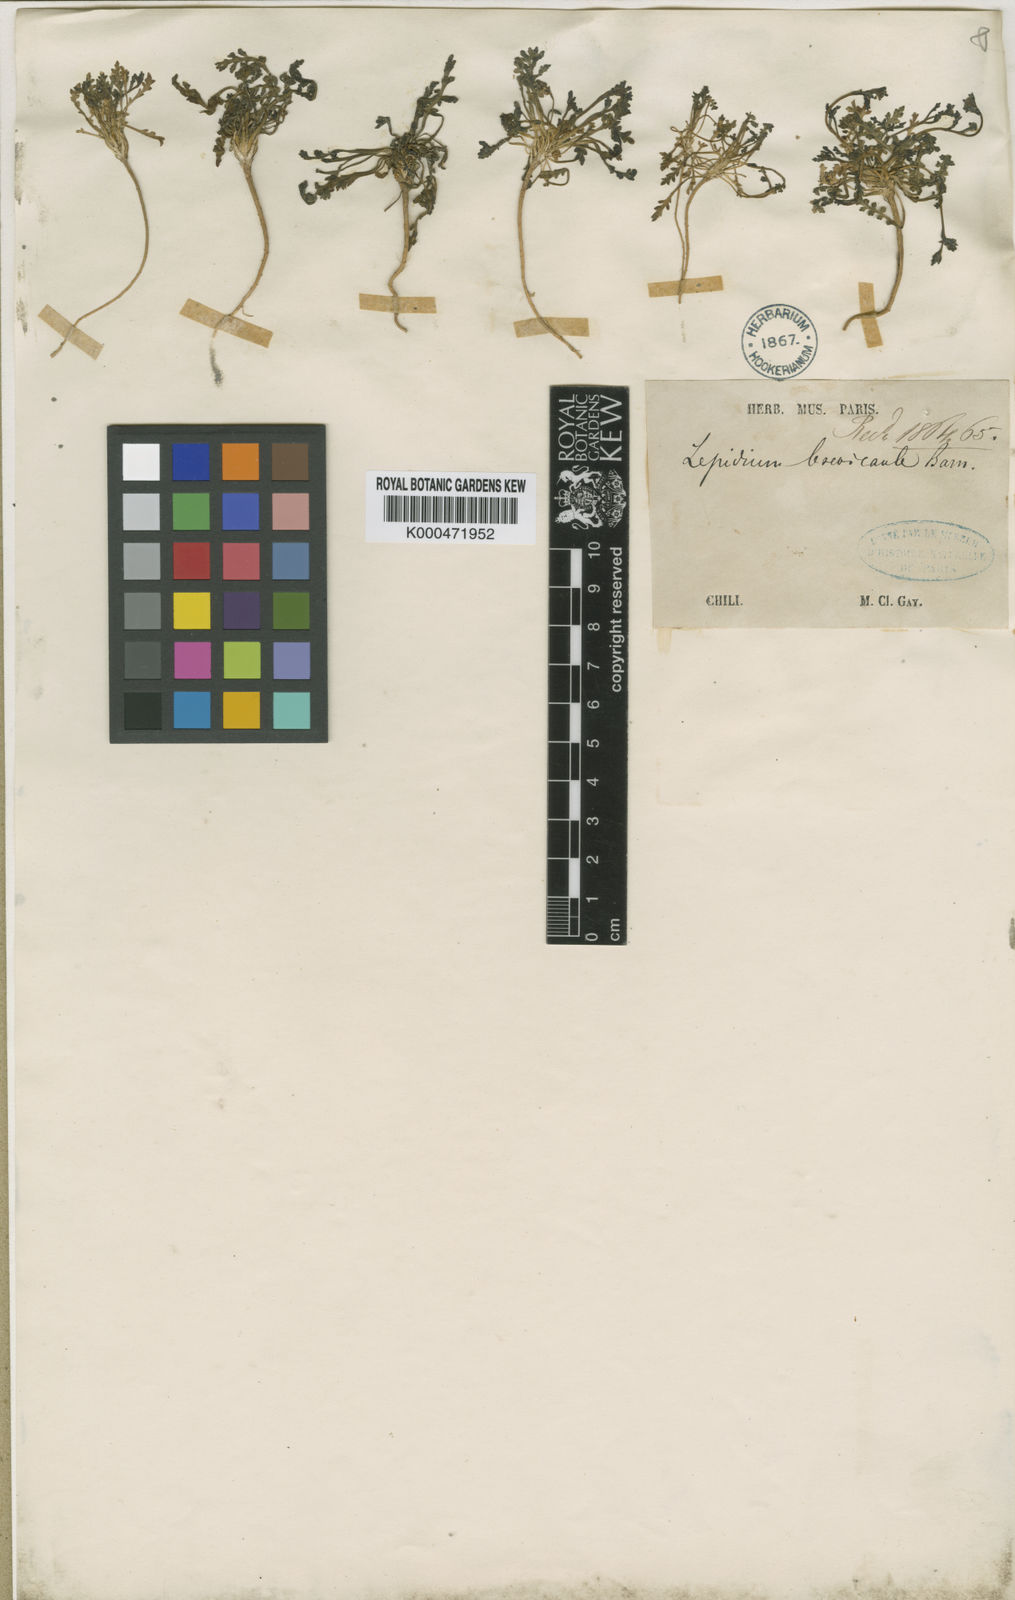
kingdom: Plantae
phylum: Tracheophyta
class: Magnoliopsida
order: Brassicales
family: Brassicaceae
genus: Lepidium
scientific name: Lepidium
